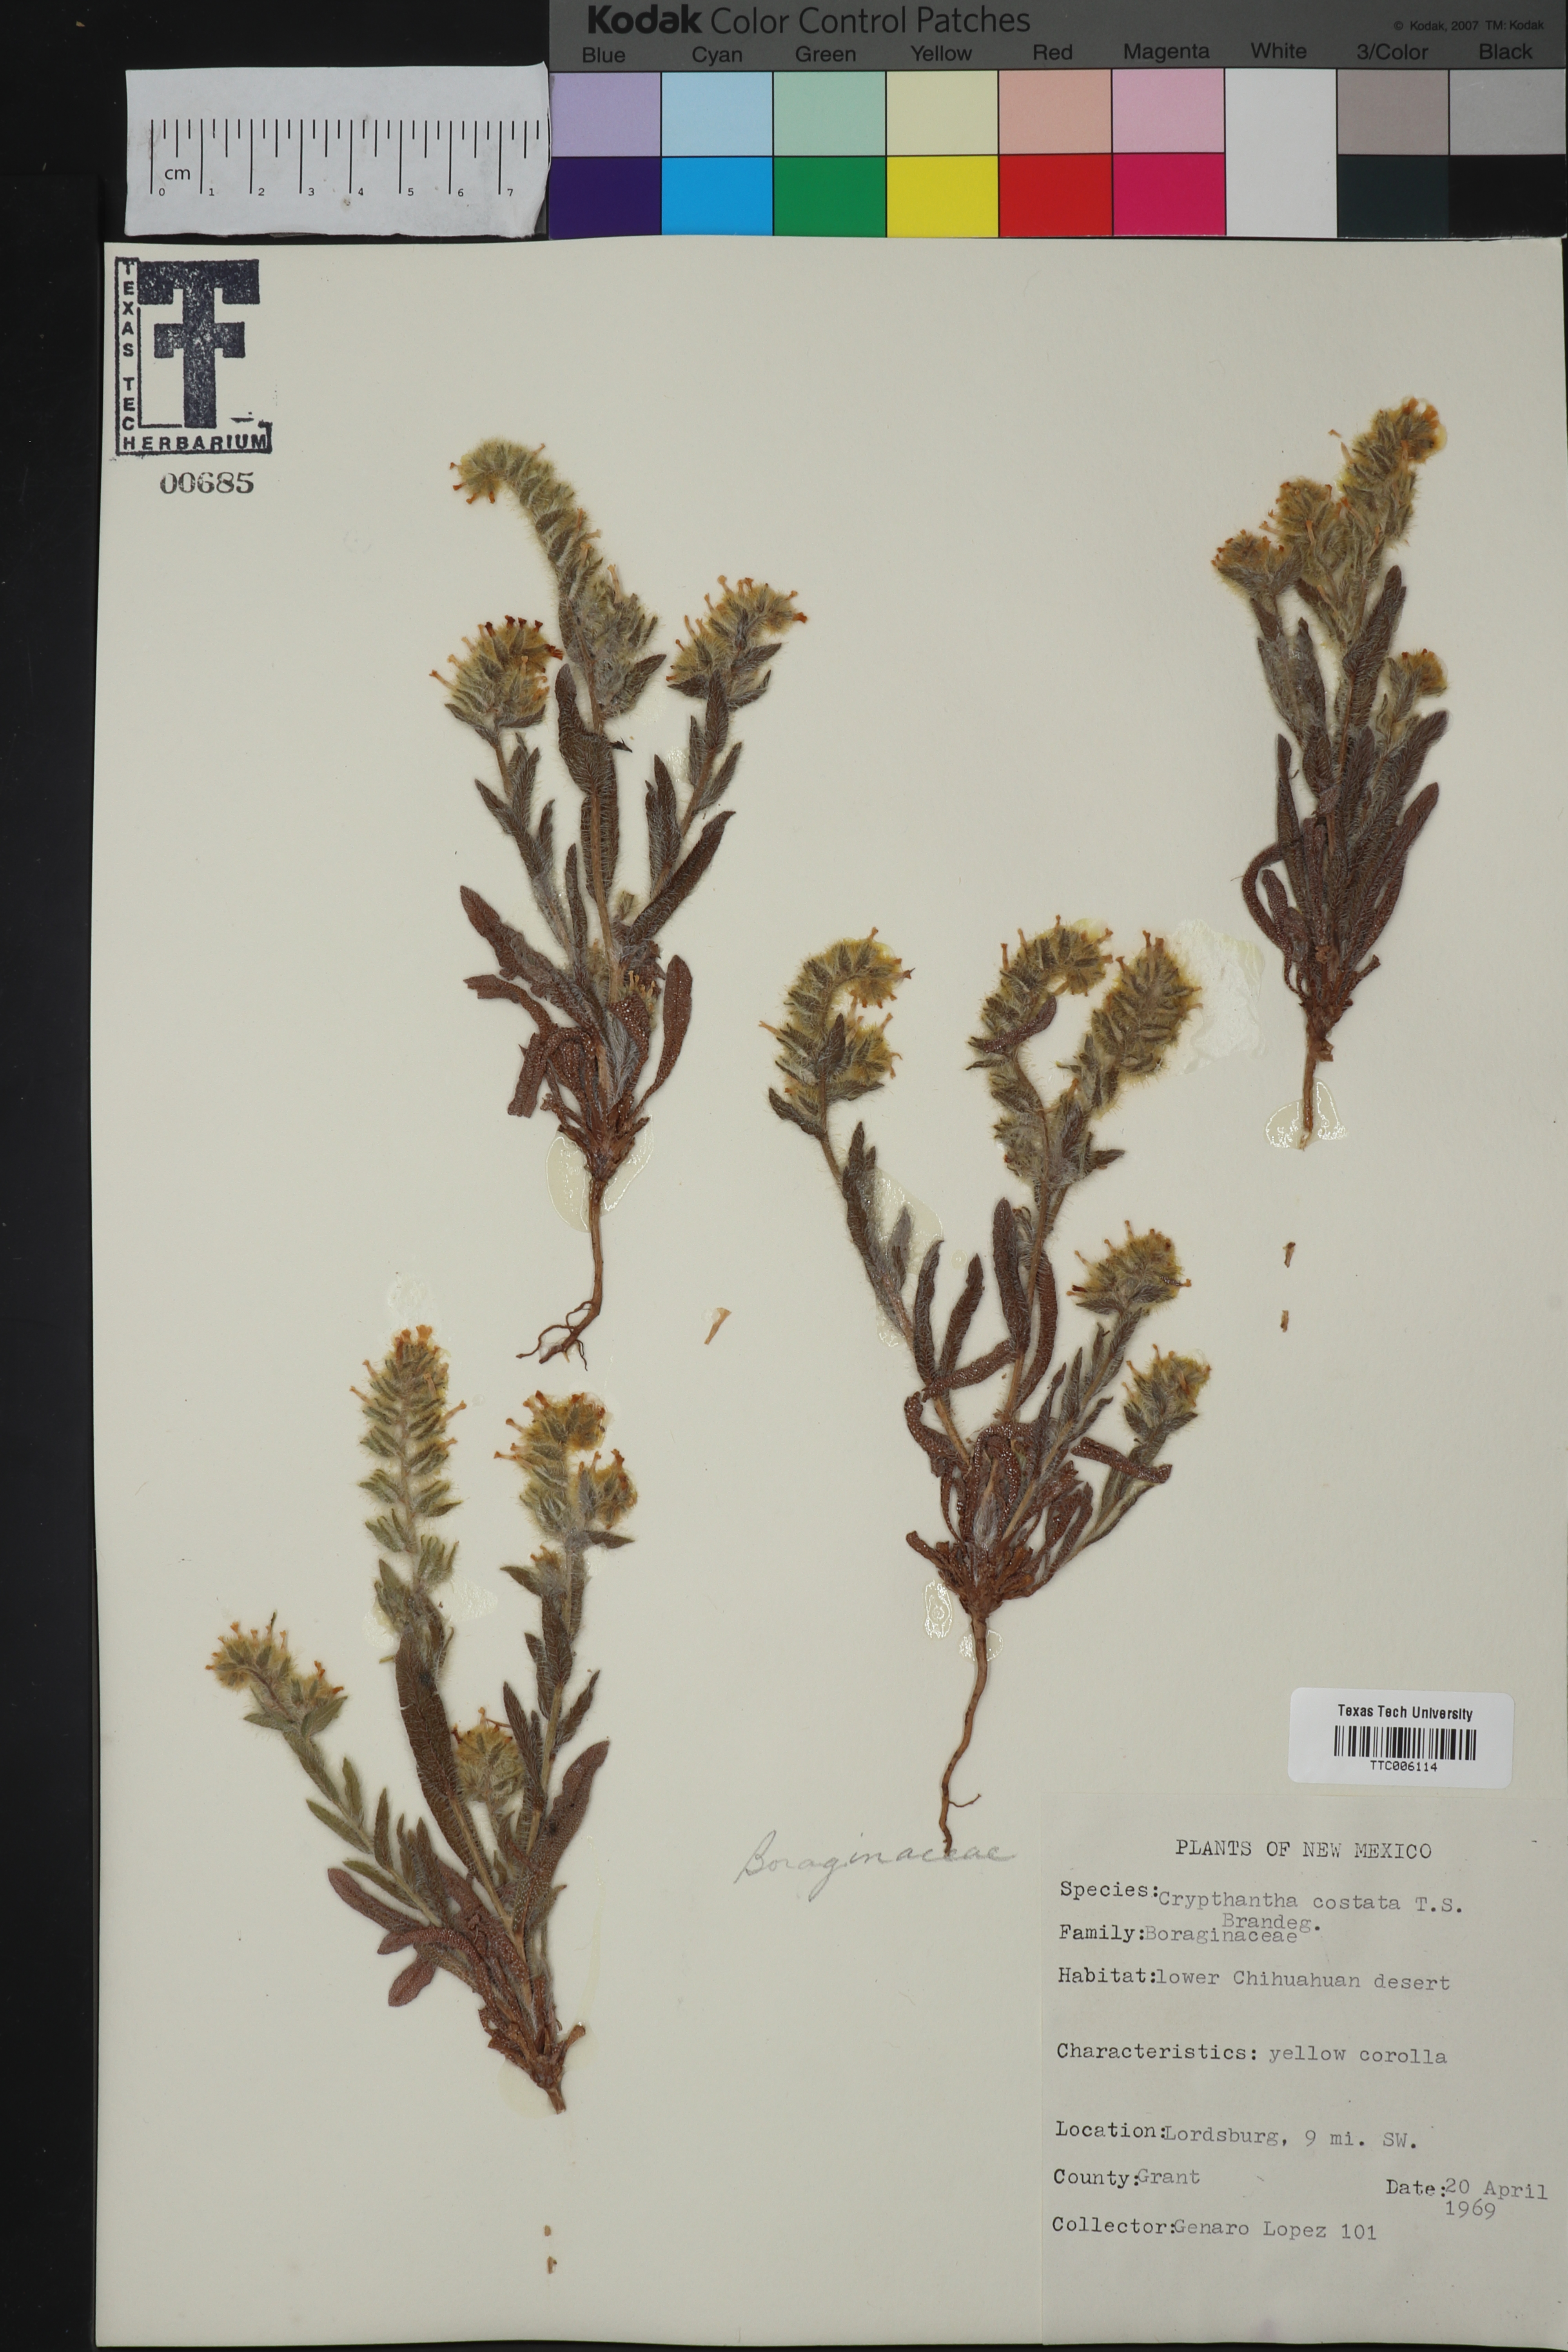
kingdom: Plantae
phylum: Tracheophyta
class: Magnoliopsida
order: Boraginales
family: Boraginaceae
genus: Johnstonella
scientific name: Johnstonella costata
